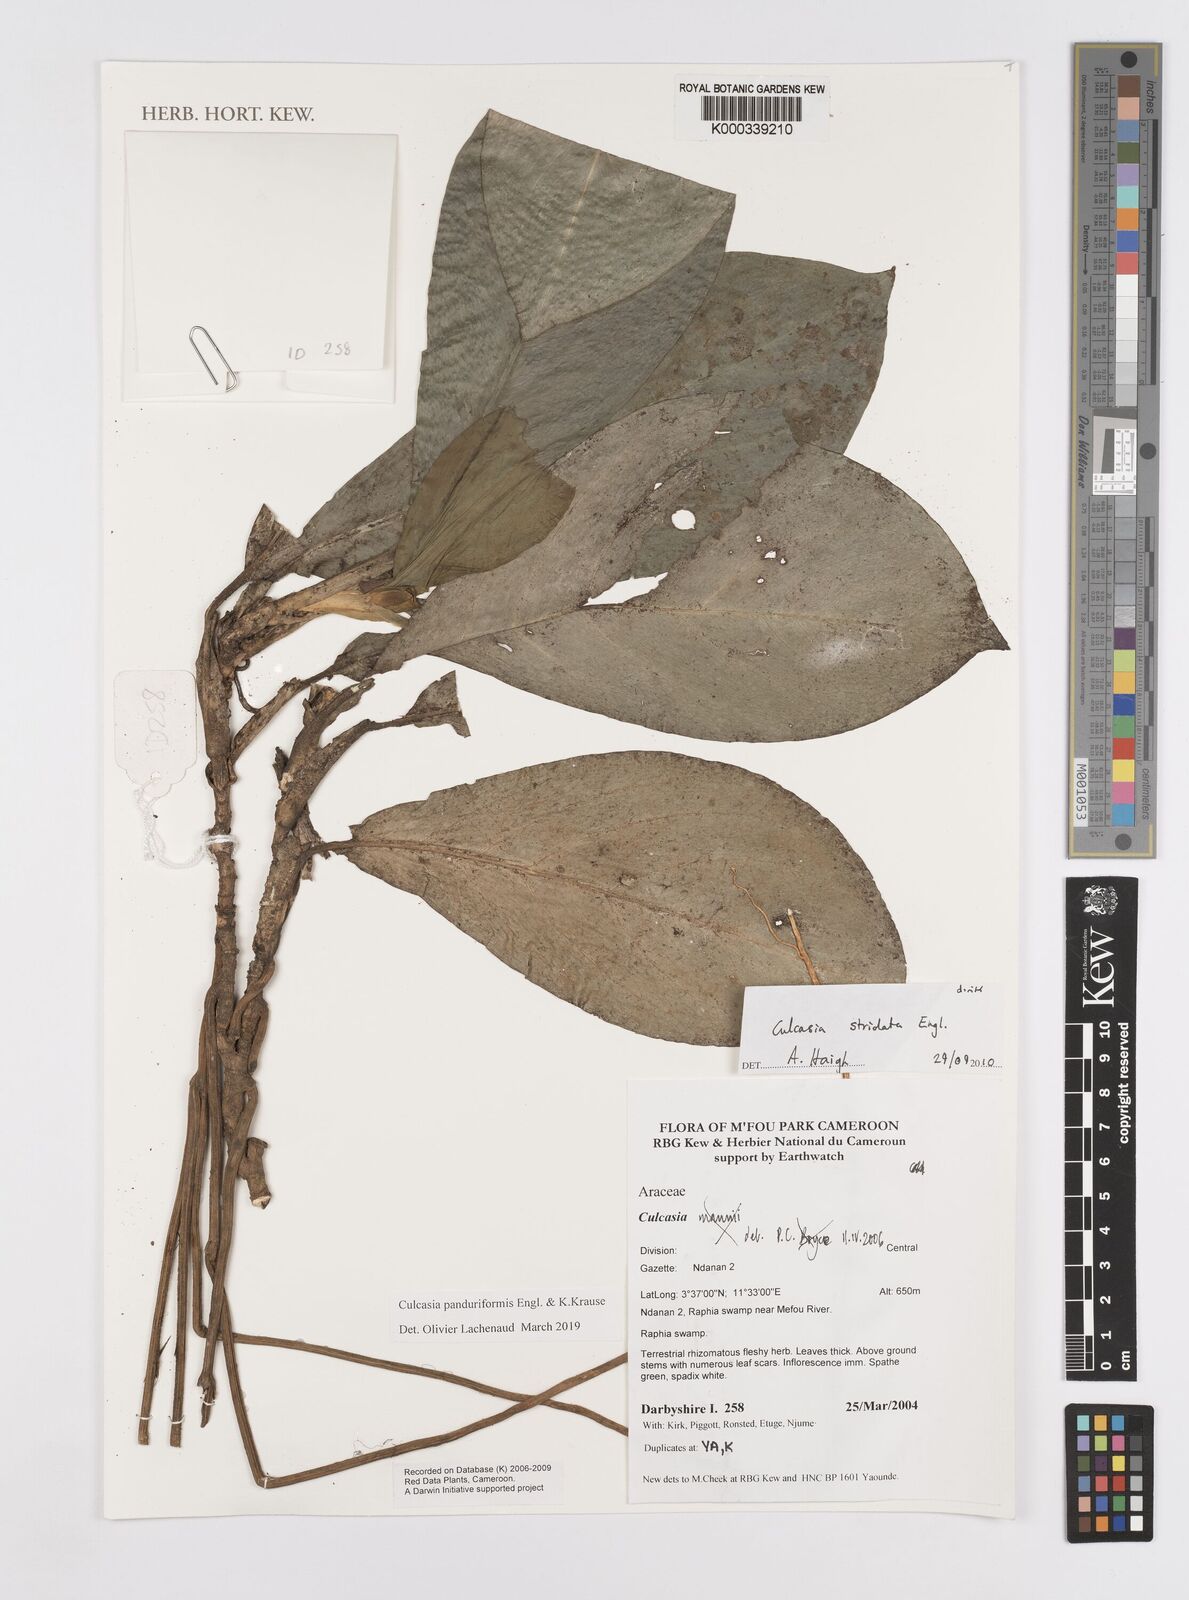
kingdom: Plantae
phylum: Tracheophyta
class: Liliopsida
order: Alismatales
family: Araceae
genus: Culcasia
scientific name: Culcasia panduriformis
